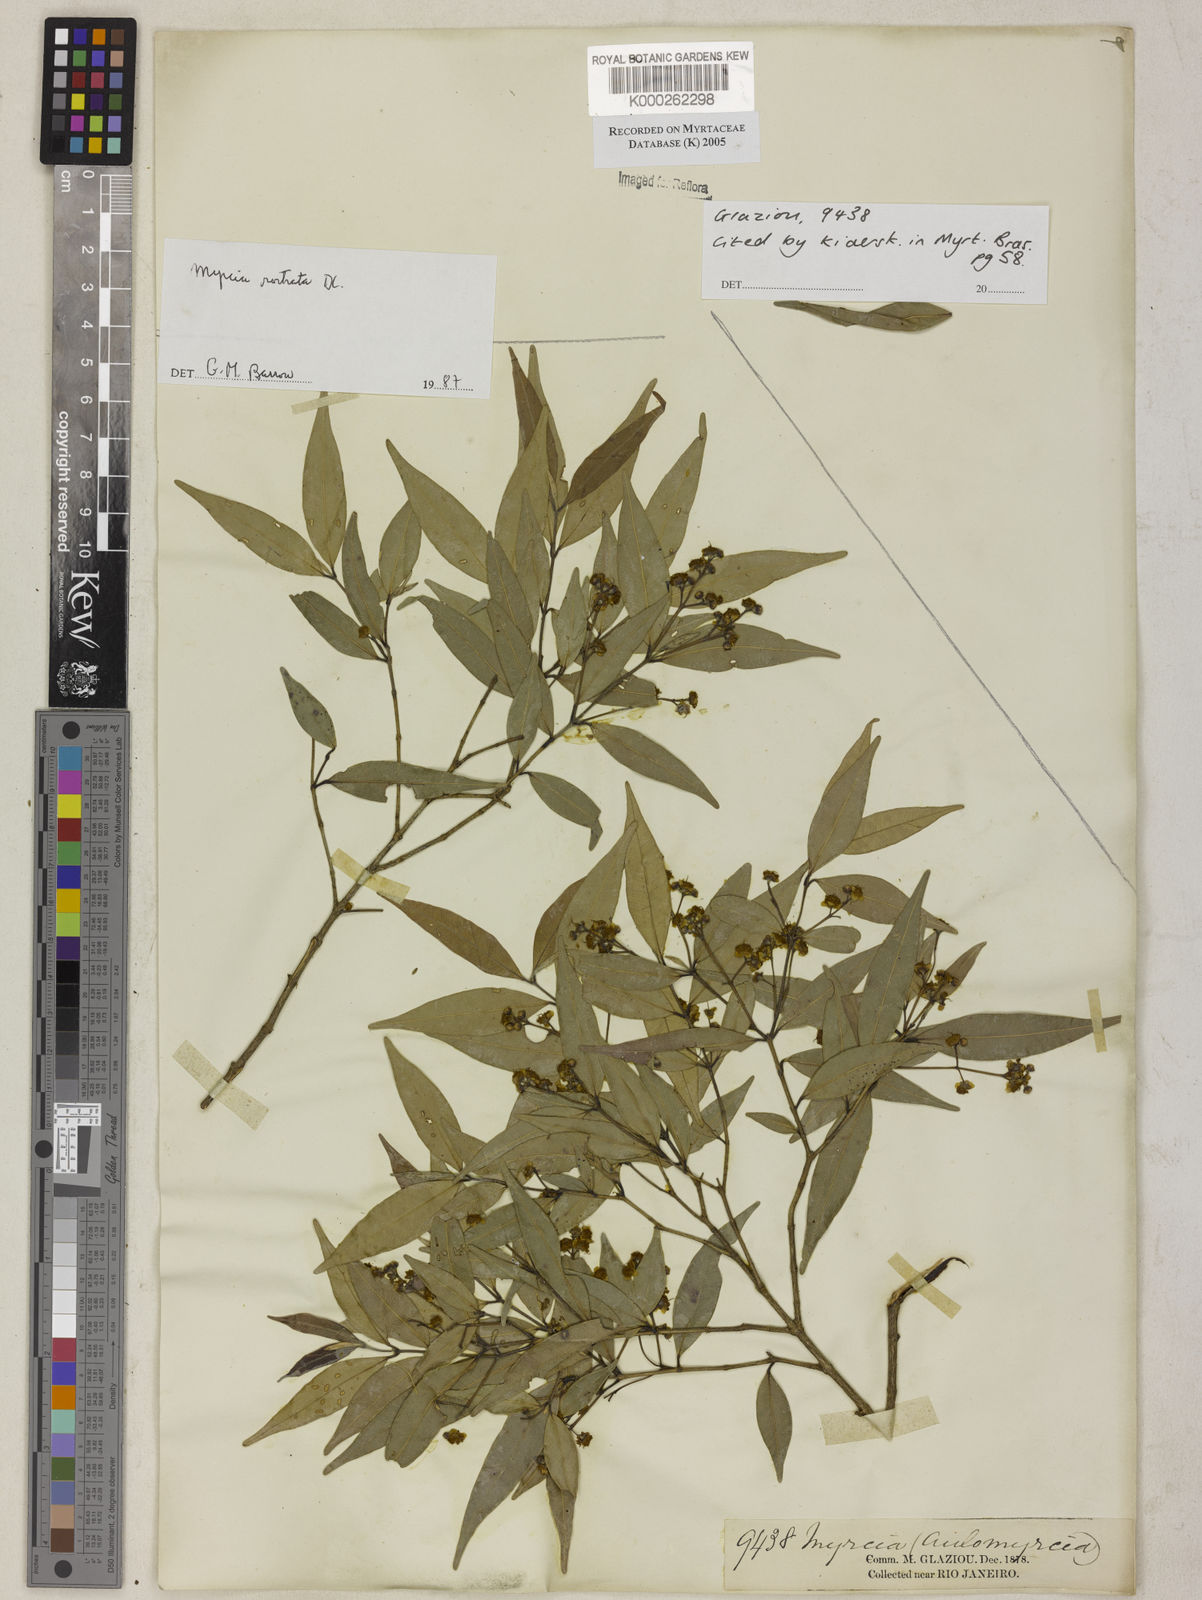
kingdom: Plantae
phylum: Tracheophyta
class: Magnoliopsida
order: Myrtales
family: Myrtaceae
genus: Myrcia
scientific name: Myrcia splendens
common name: Surinam cherry
